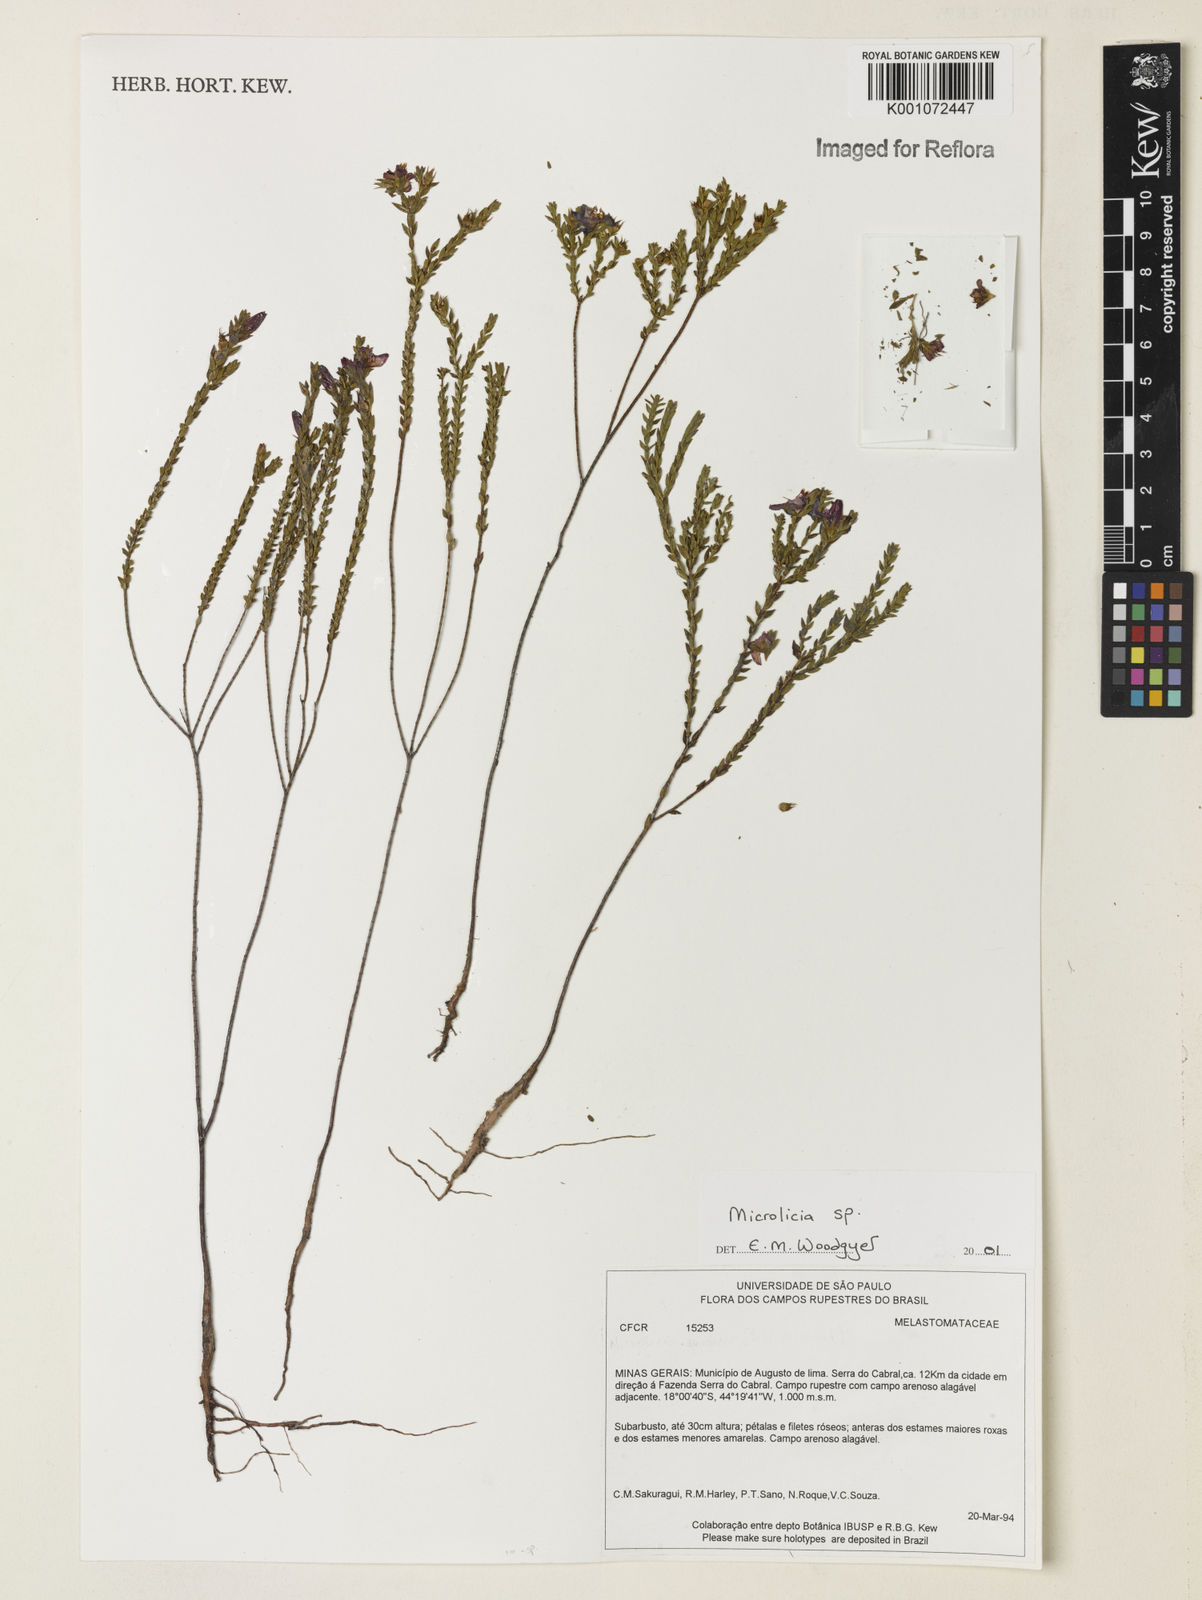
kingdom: Plantae
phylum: Tracheophyta
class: Magnoliopsida
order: Myrtales
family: Melastomataceae
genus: Microlicia
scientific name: Microlicia
